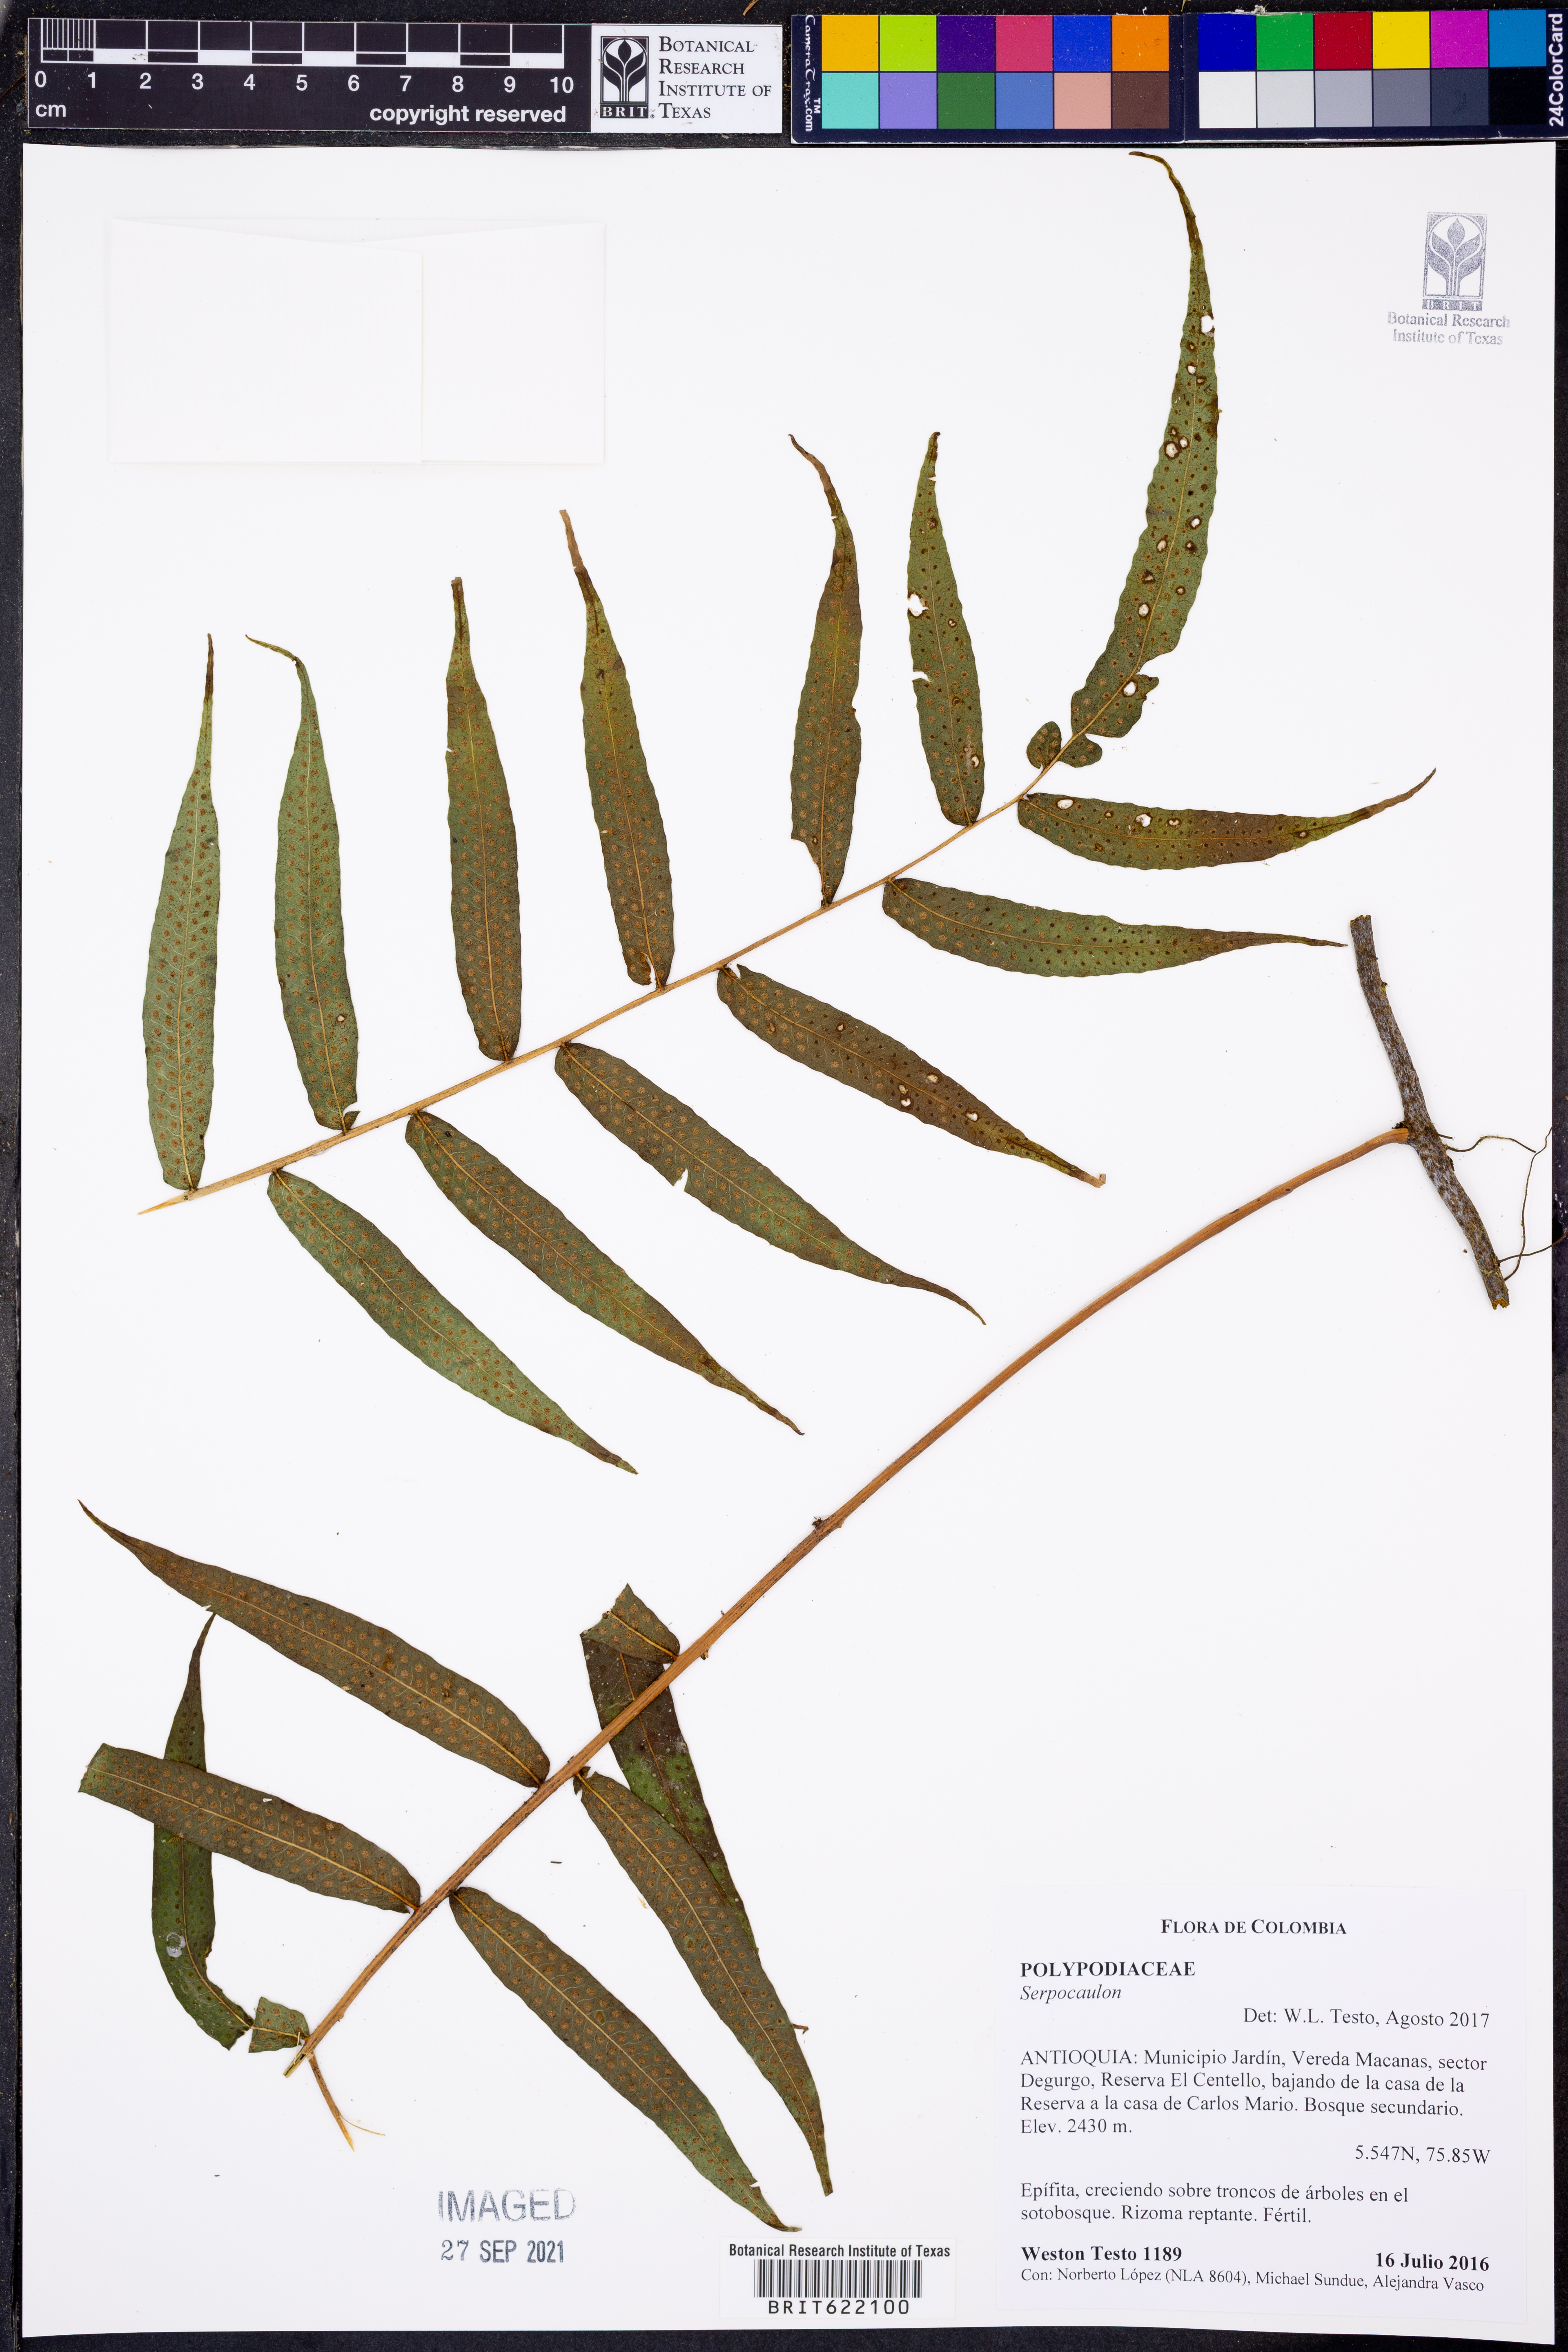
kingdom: Plantae
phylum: Tracheophyta
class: Polypodiopsida
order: Polypodiales
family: Polypodiaceae
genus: Serpocaulon
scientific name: Serpocaulon
